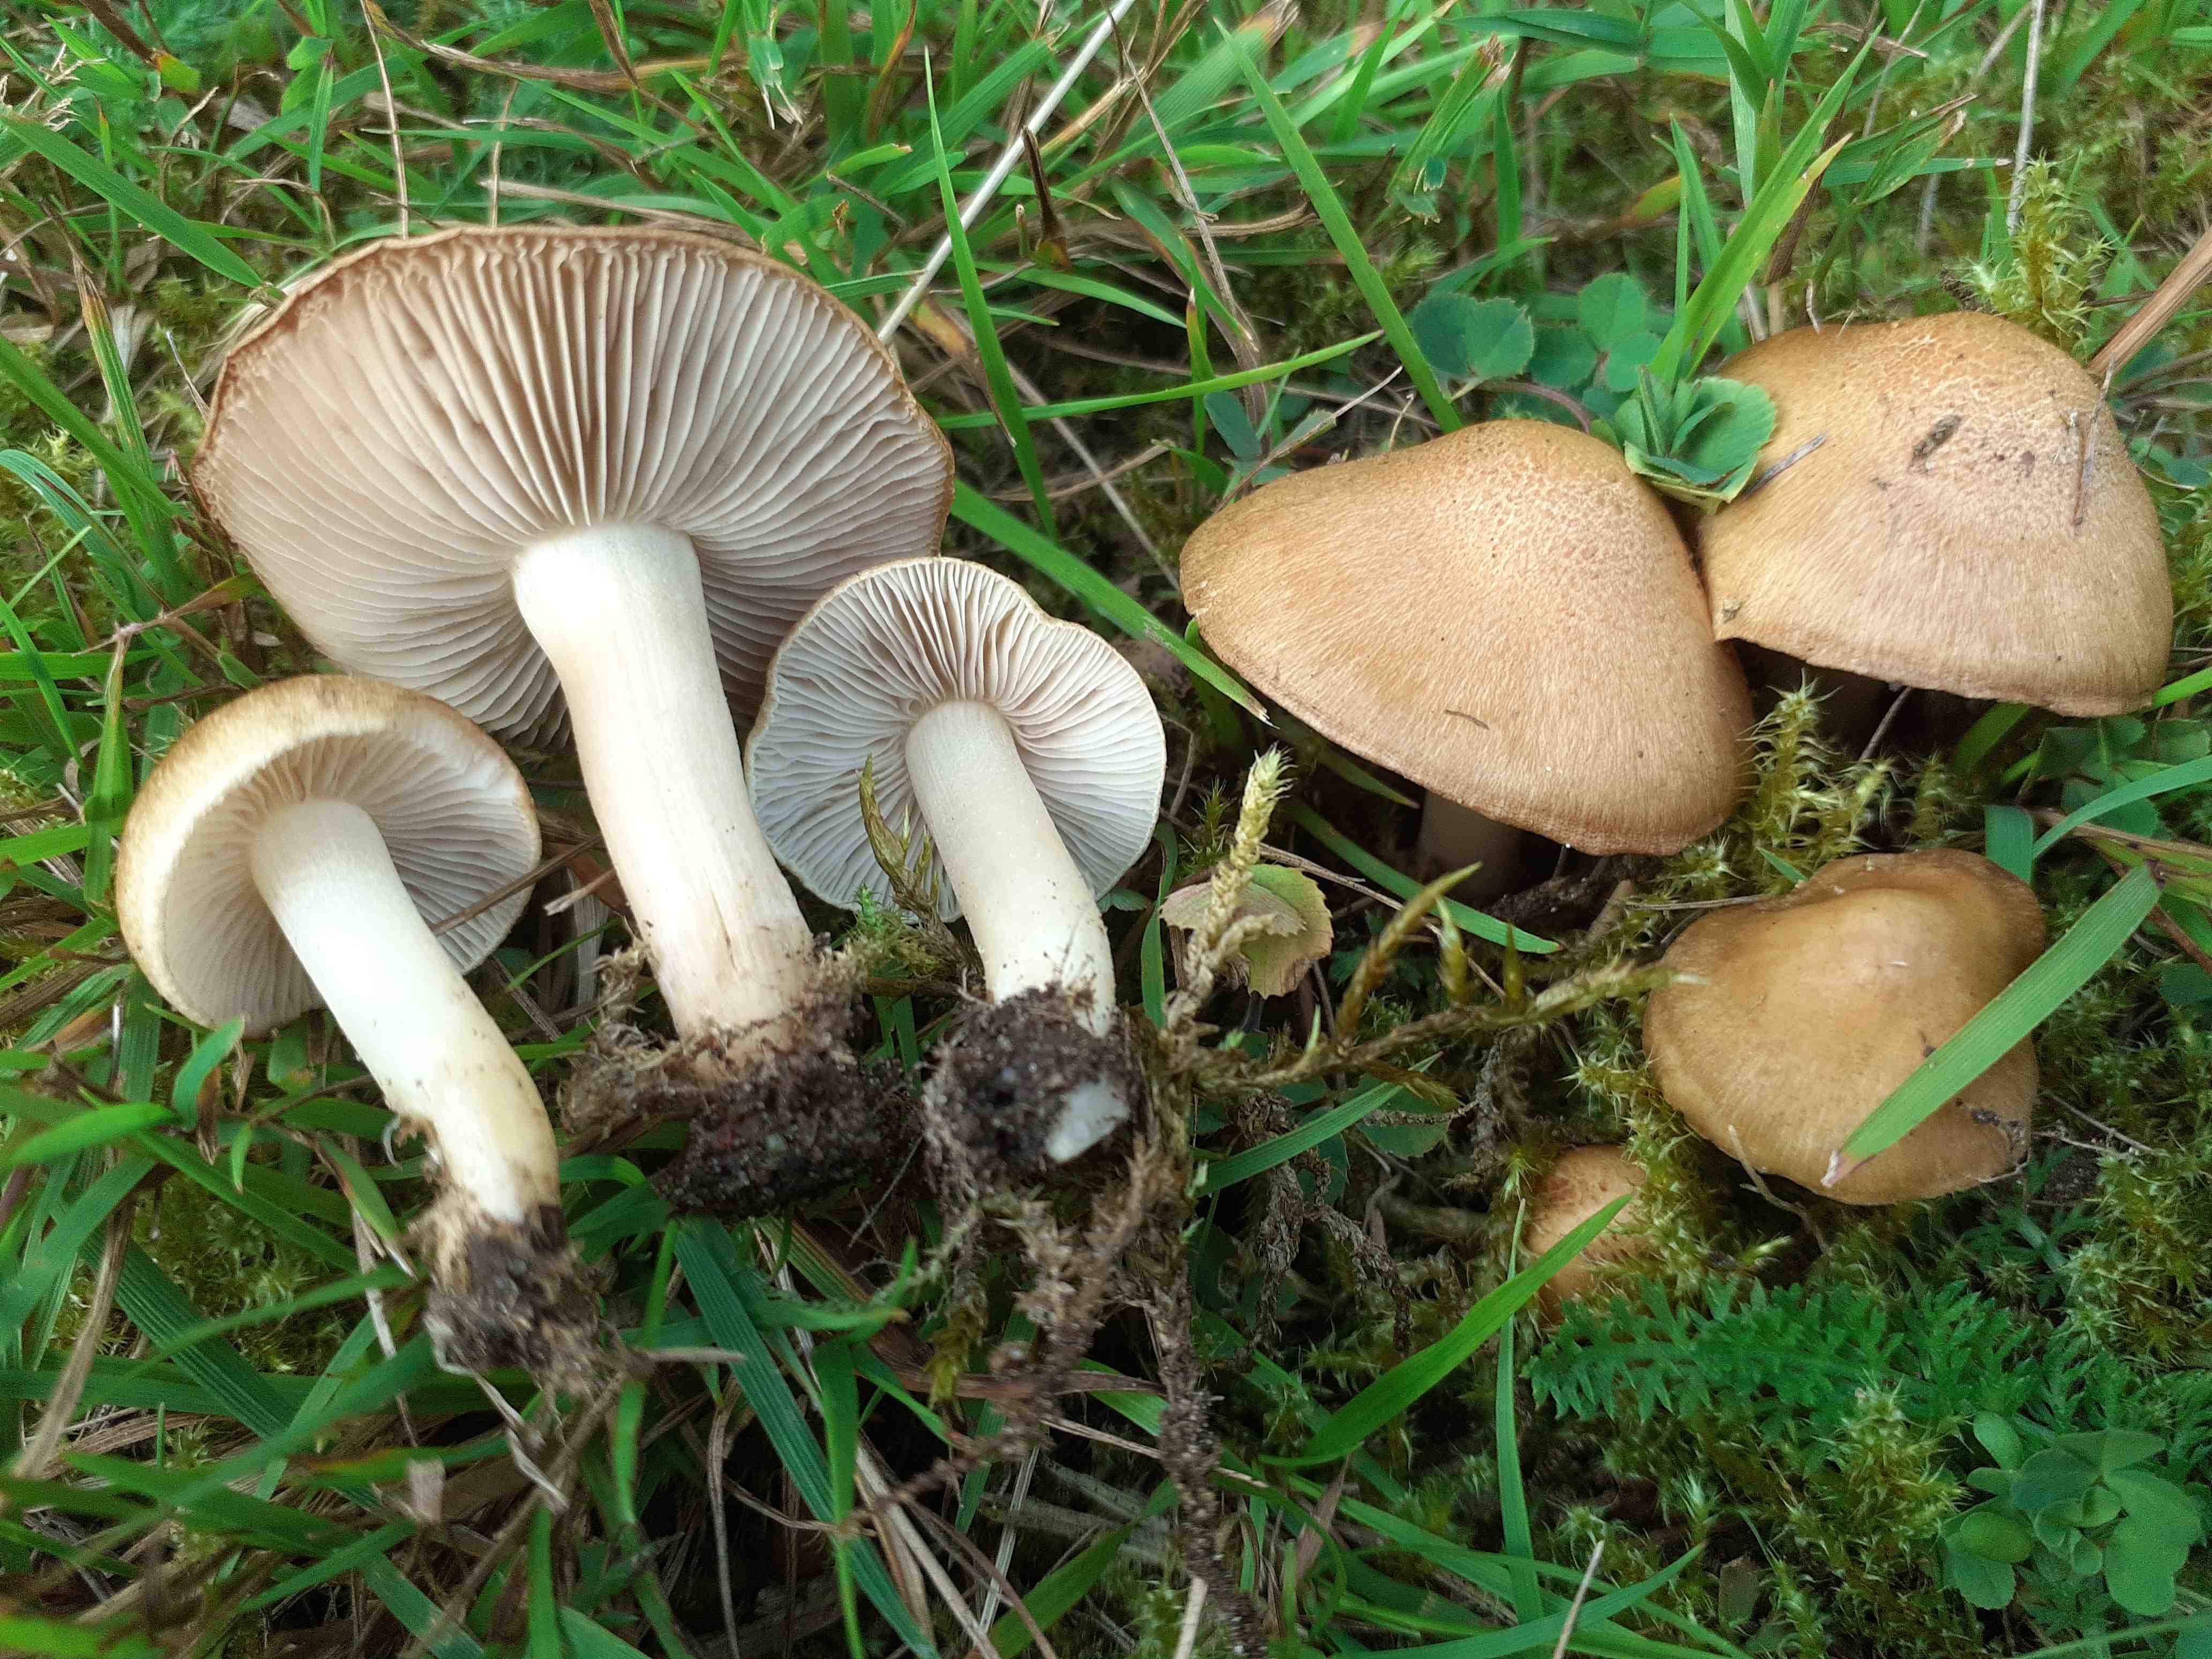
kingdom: Fungi
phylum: Basidiomycota
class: Agaricomycetes
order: Agaricales
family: Inocybaceae
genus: Inocybe
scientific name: Inocybe langei
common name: Langes trævlhat
